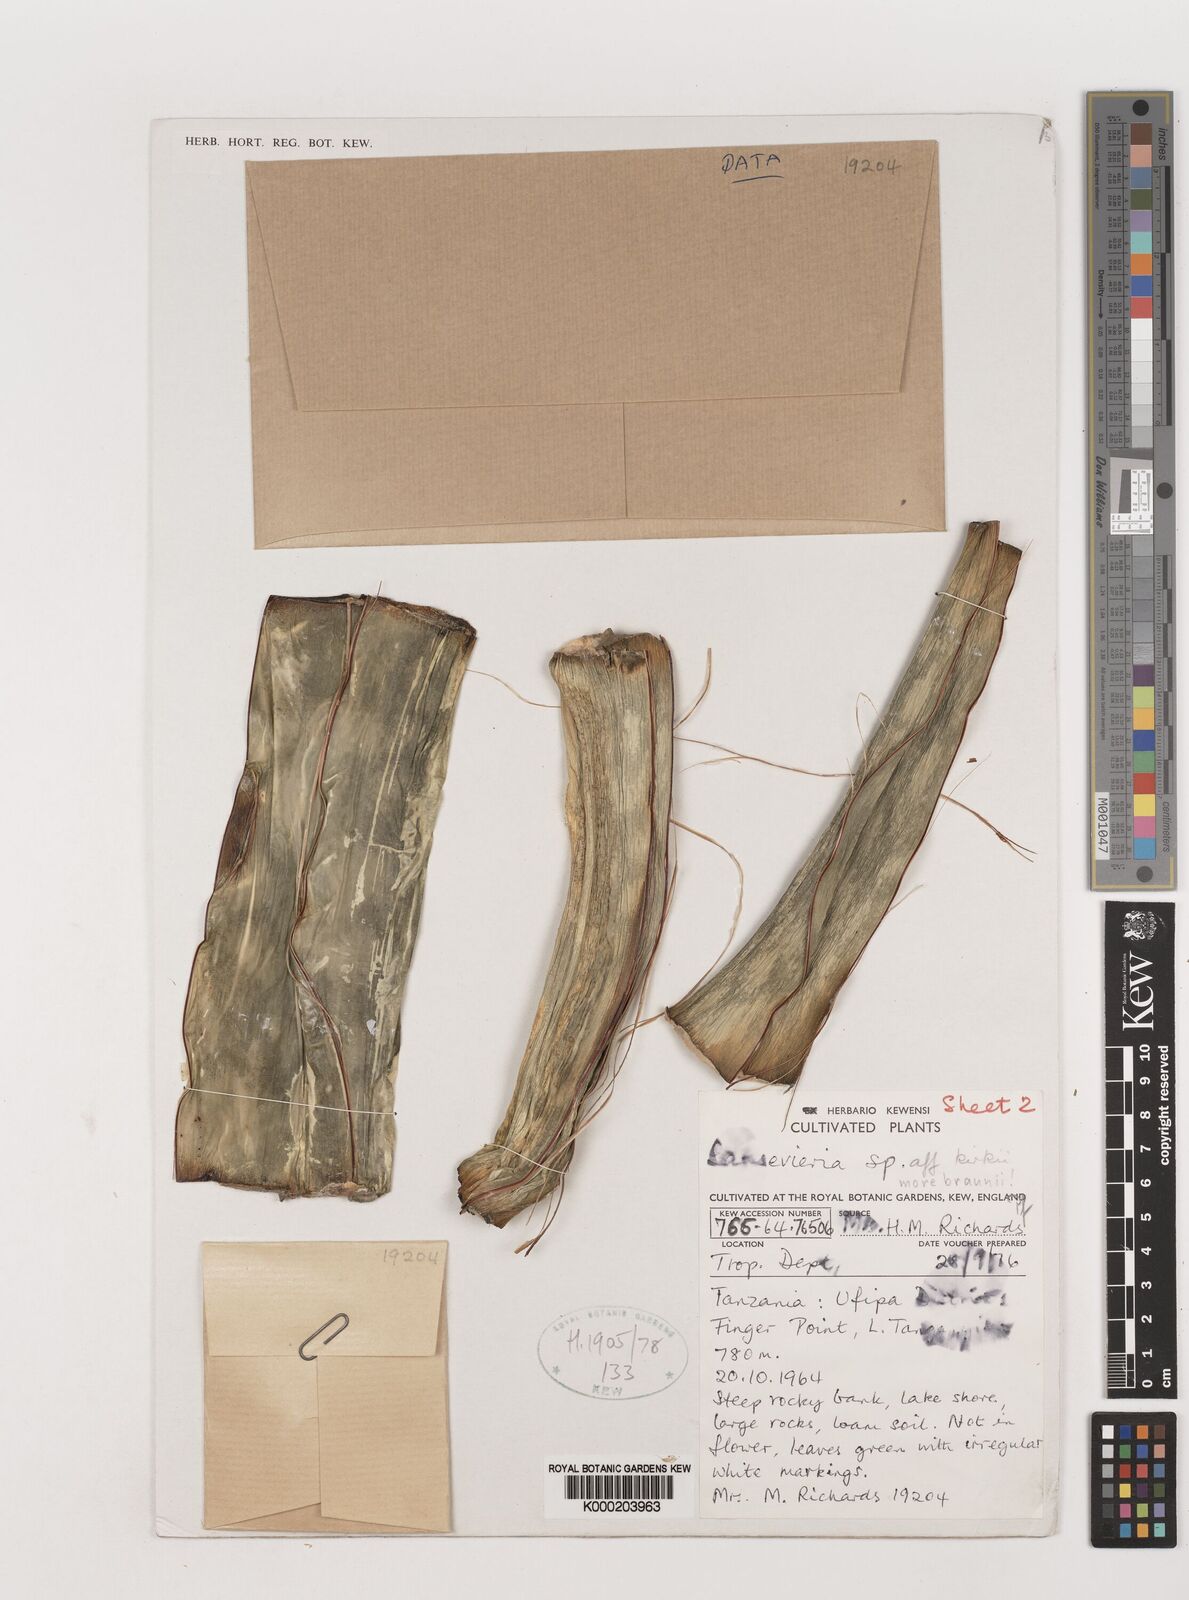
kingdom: Plantae
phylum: Tracheophyta
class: Liliopsida
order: Asparagales
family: Asparagaceae
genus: Dracaena
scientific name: Dracaena testudinea
